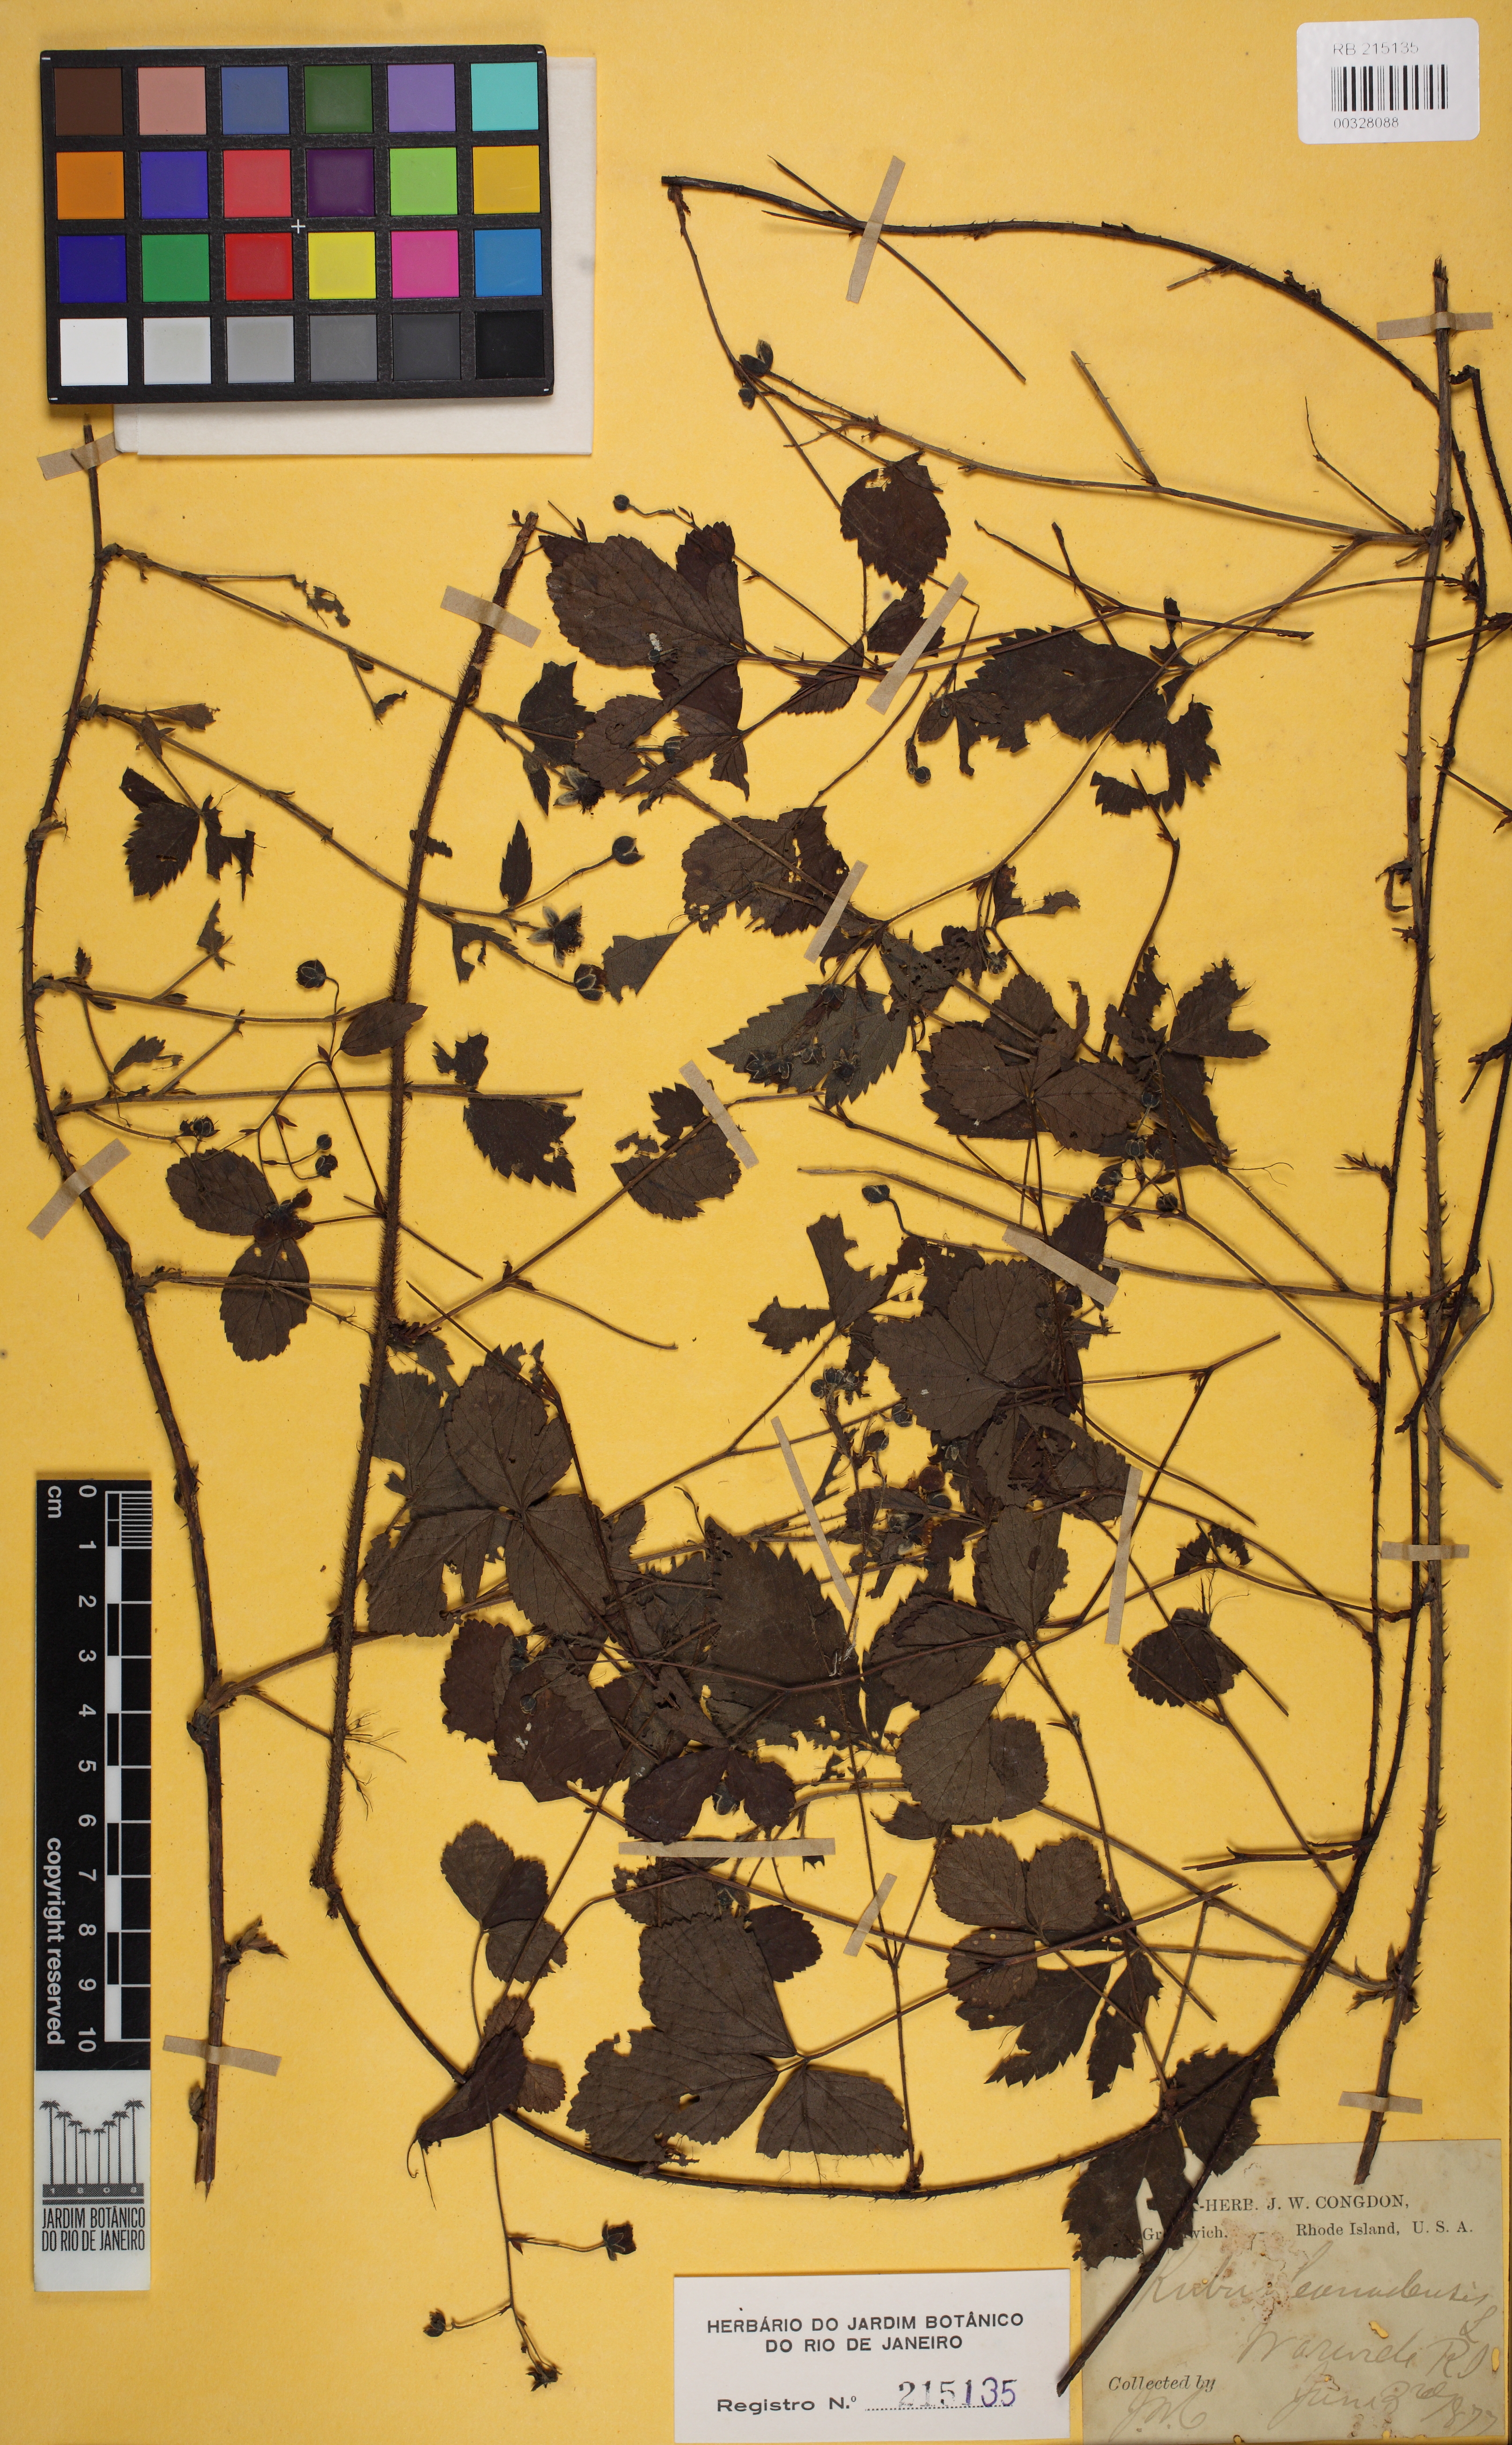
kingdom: Plantae
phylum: Tracheophyta
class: Magnoliopsida
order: Rosales
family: Rosaceae
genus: Rubus
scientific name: Rubus canadensis
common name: Smooth blackberry
